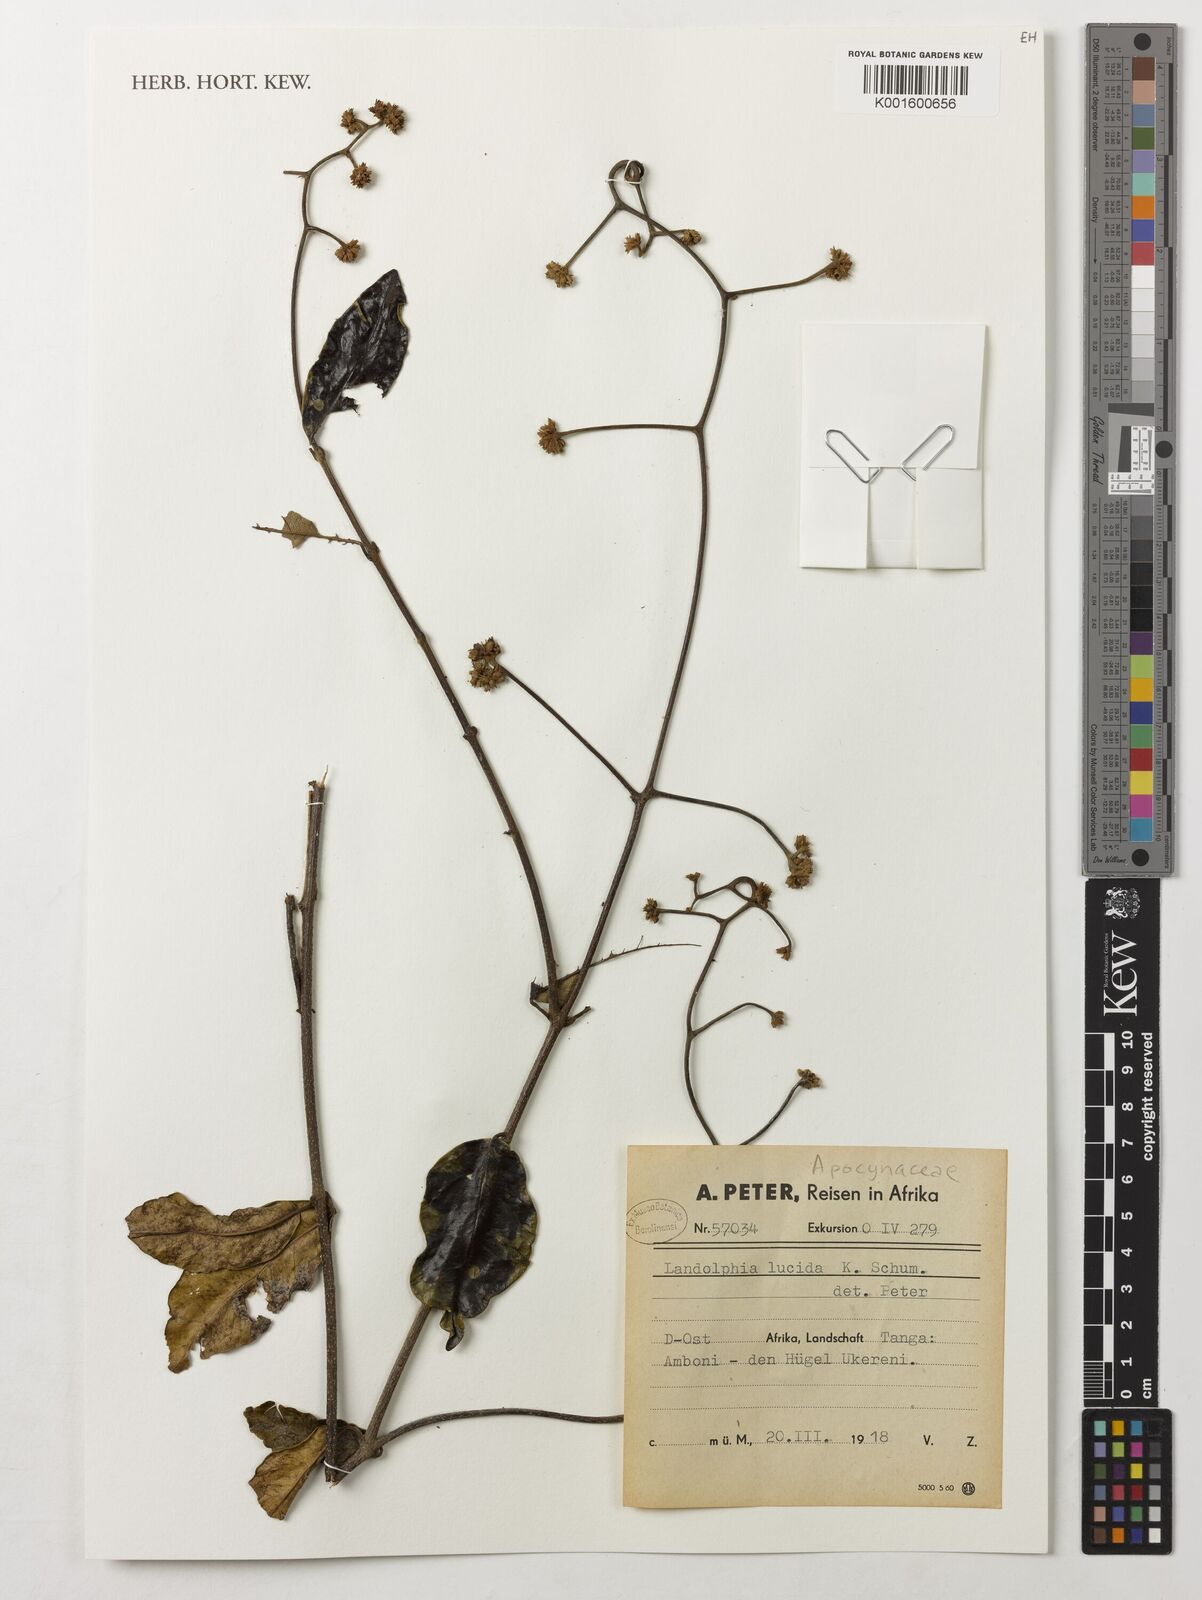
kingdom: Plantae
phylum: Tracheophyta
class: Magnoliopsida
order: Gentianales
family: Apocynaceae
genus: Dictyophleba
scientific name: Dictyophleba lucida
